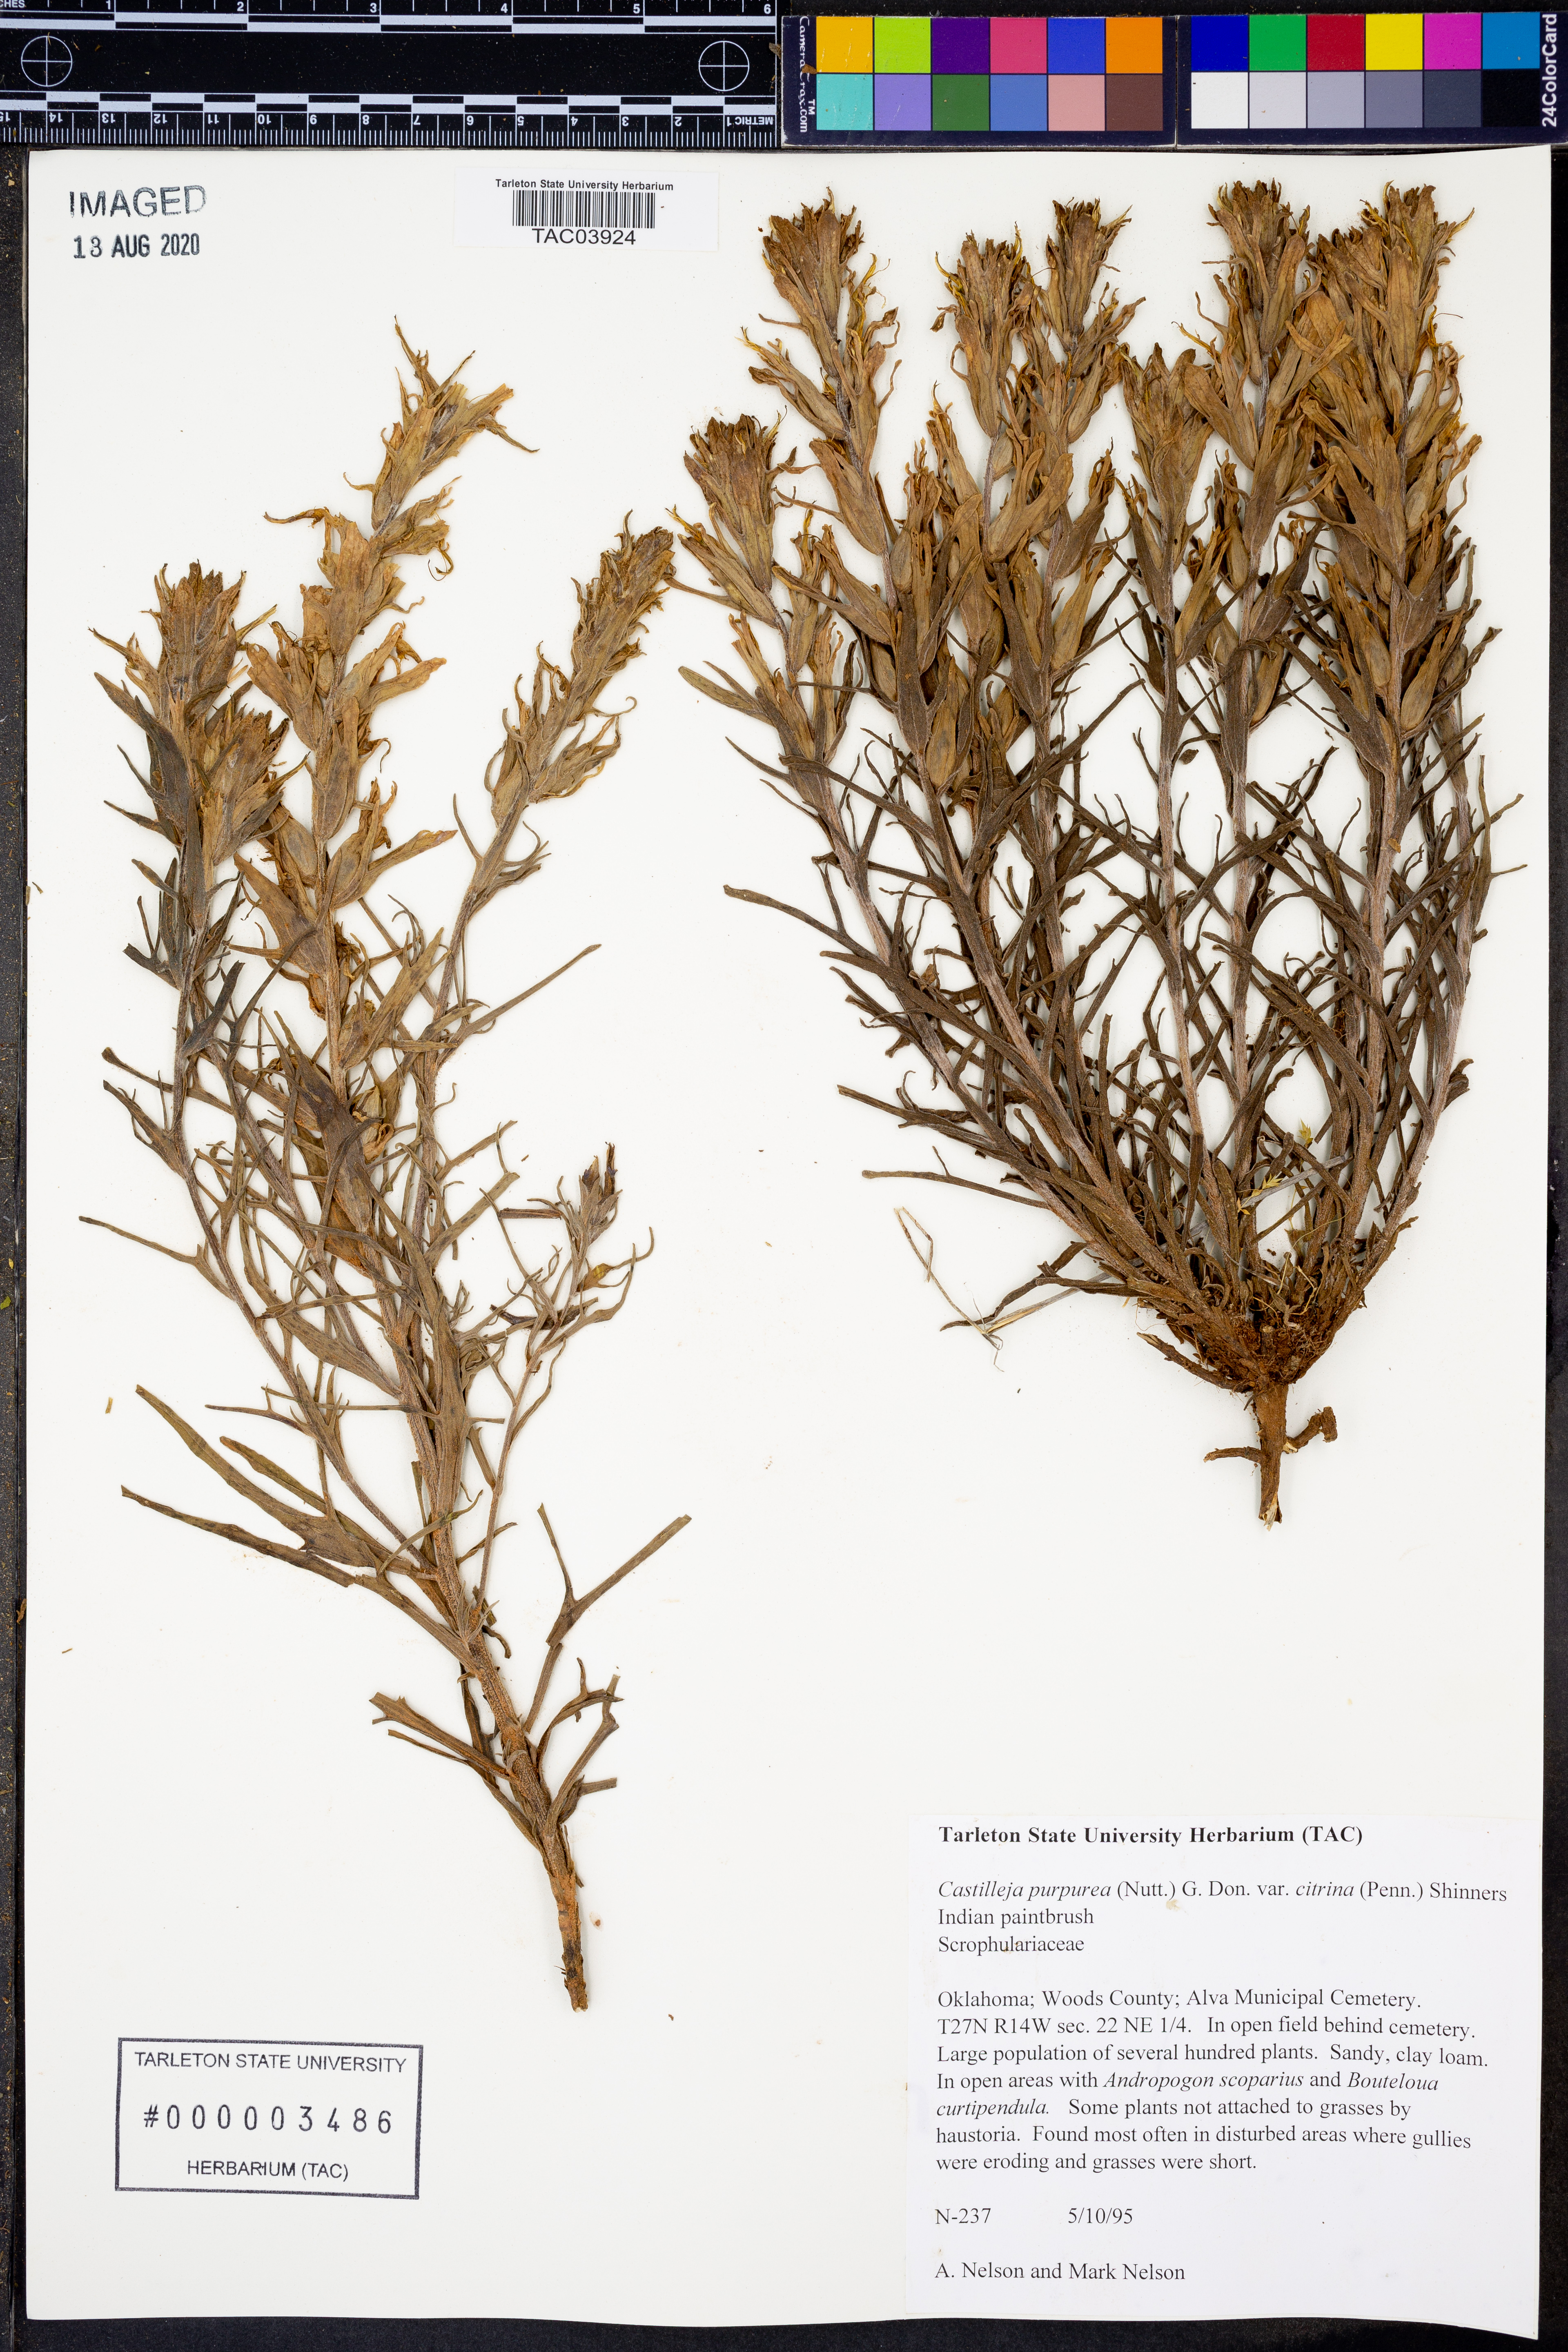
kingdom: Plantae
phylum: Tracheophyta
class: Magnoliopsida
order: Lamiales
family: Orobanchaceae
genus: Castilleja
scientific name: Castilleja citrina
